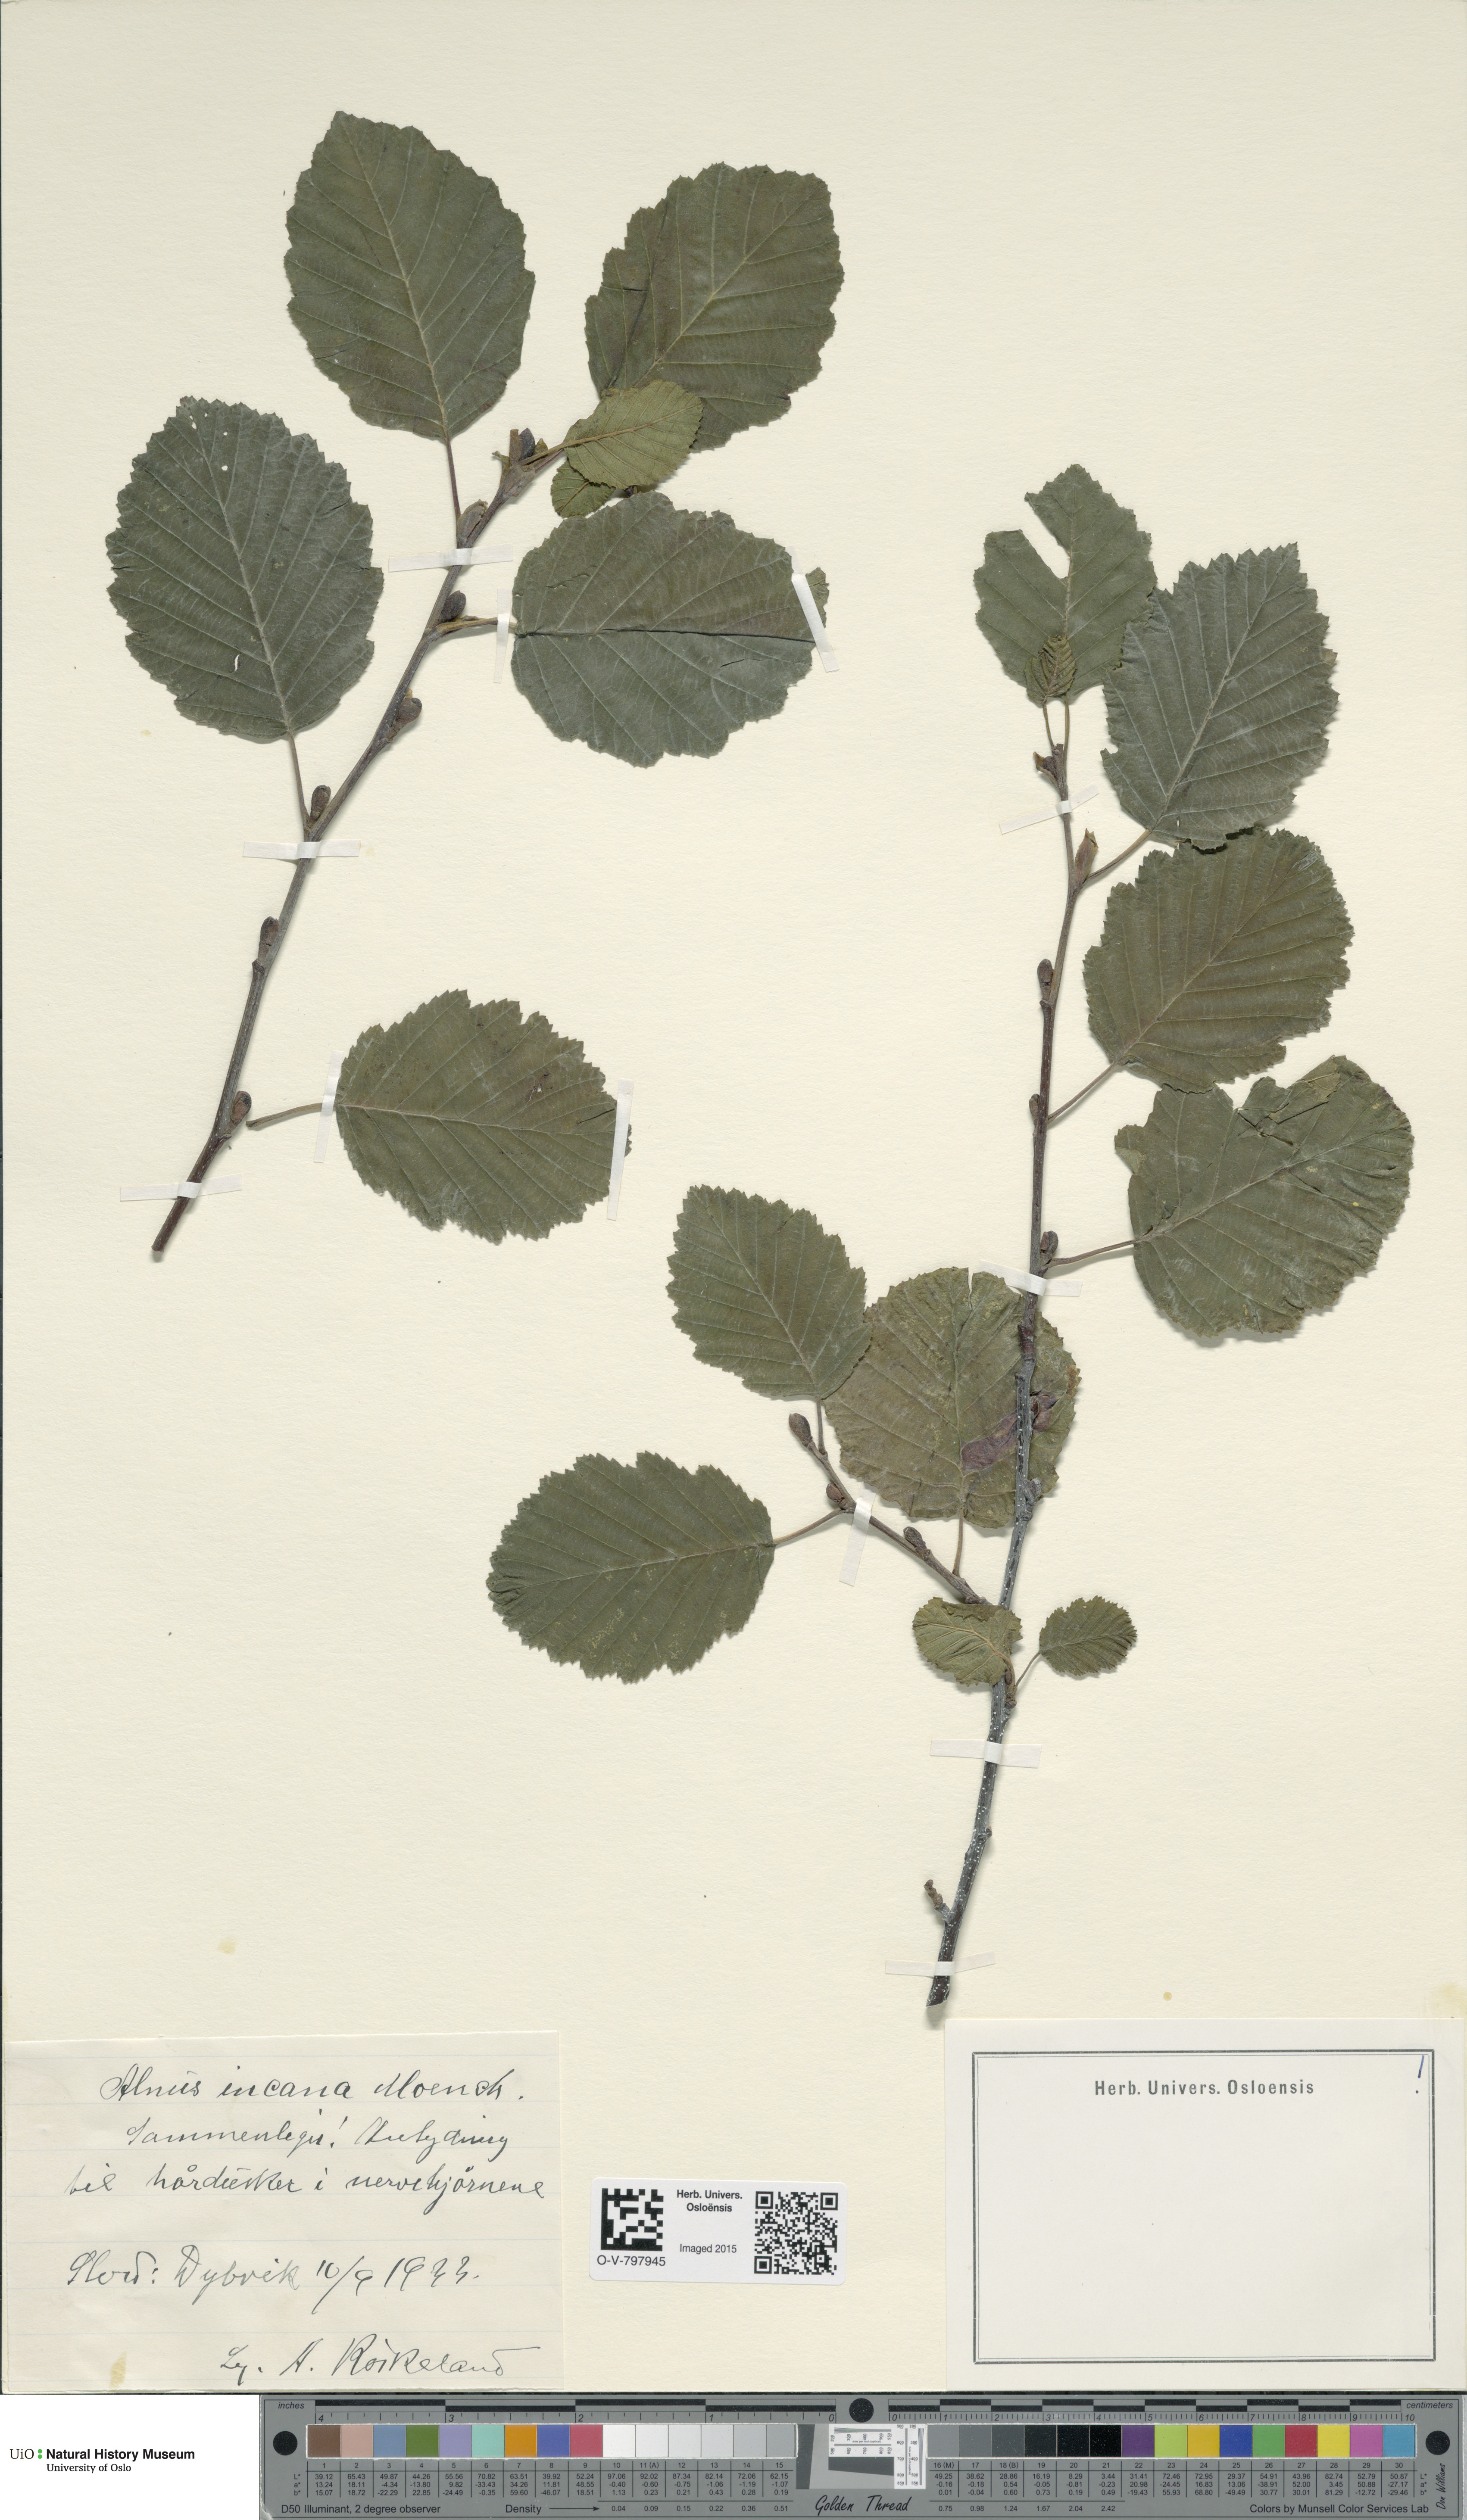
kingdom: Plantae
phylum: Tracheophyta
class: Magnoliopsida
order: Fagales
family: Betulaceae
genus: Alnus
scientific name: Alnus incana
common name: Grey alder
